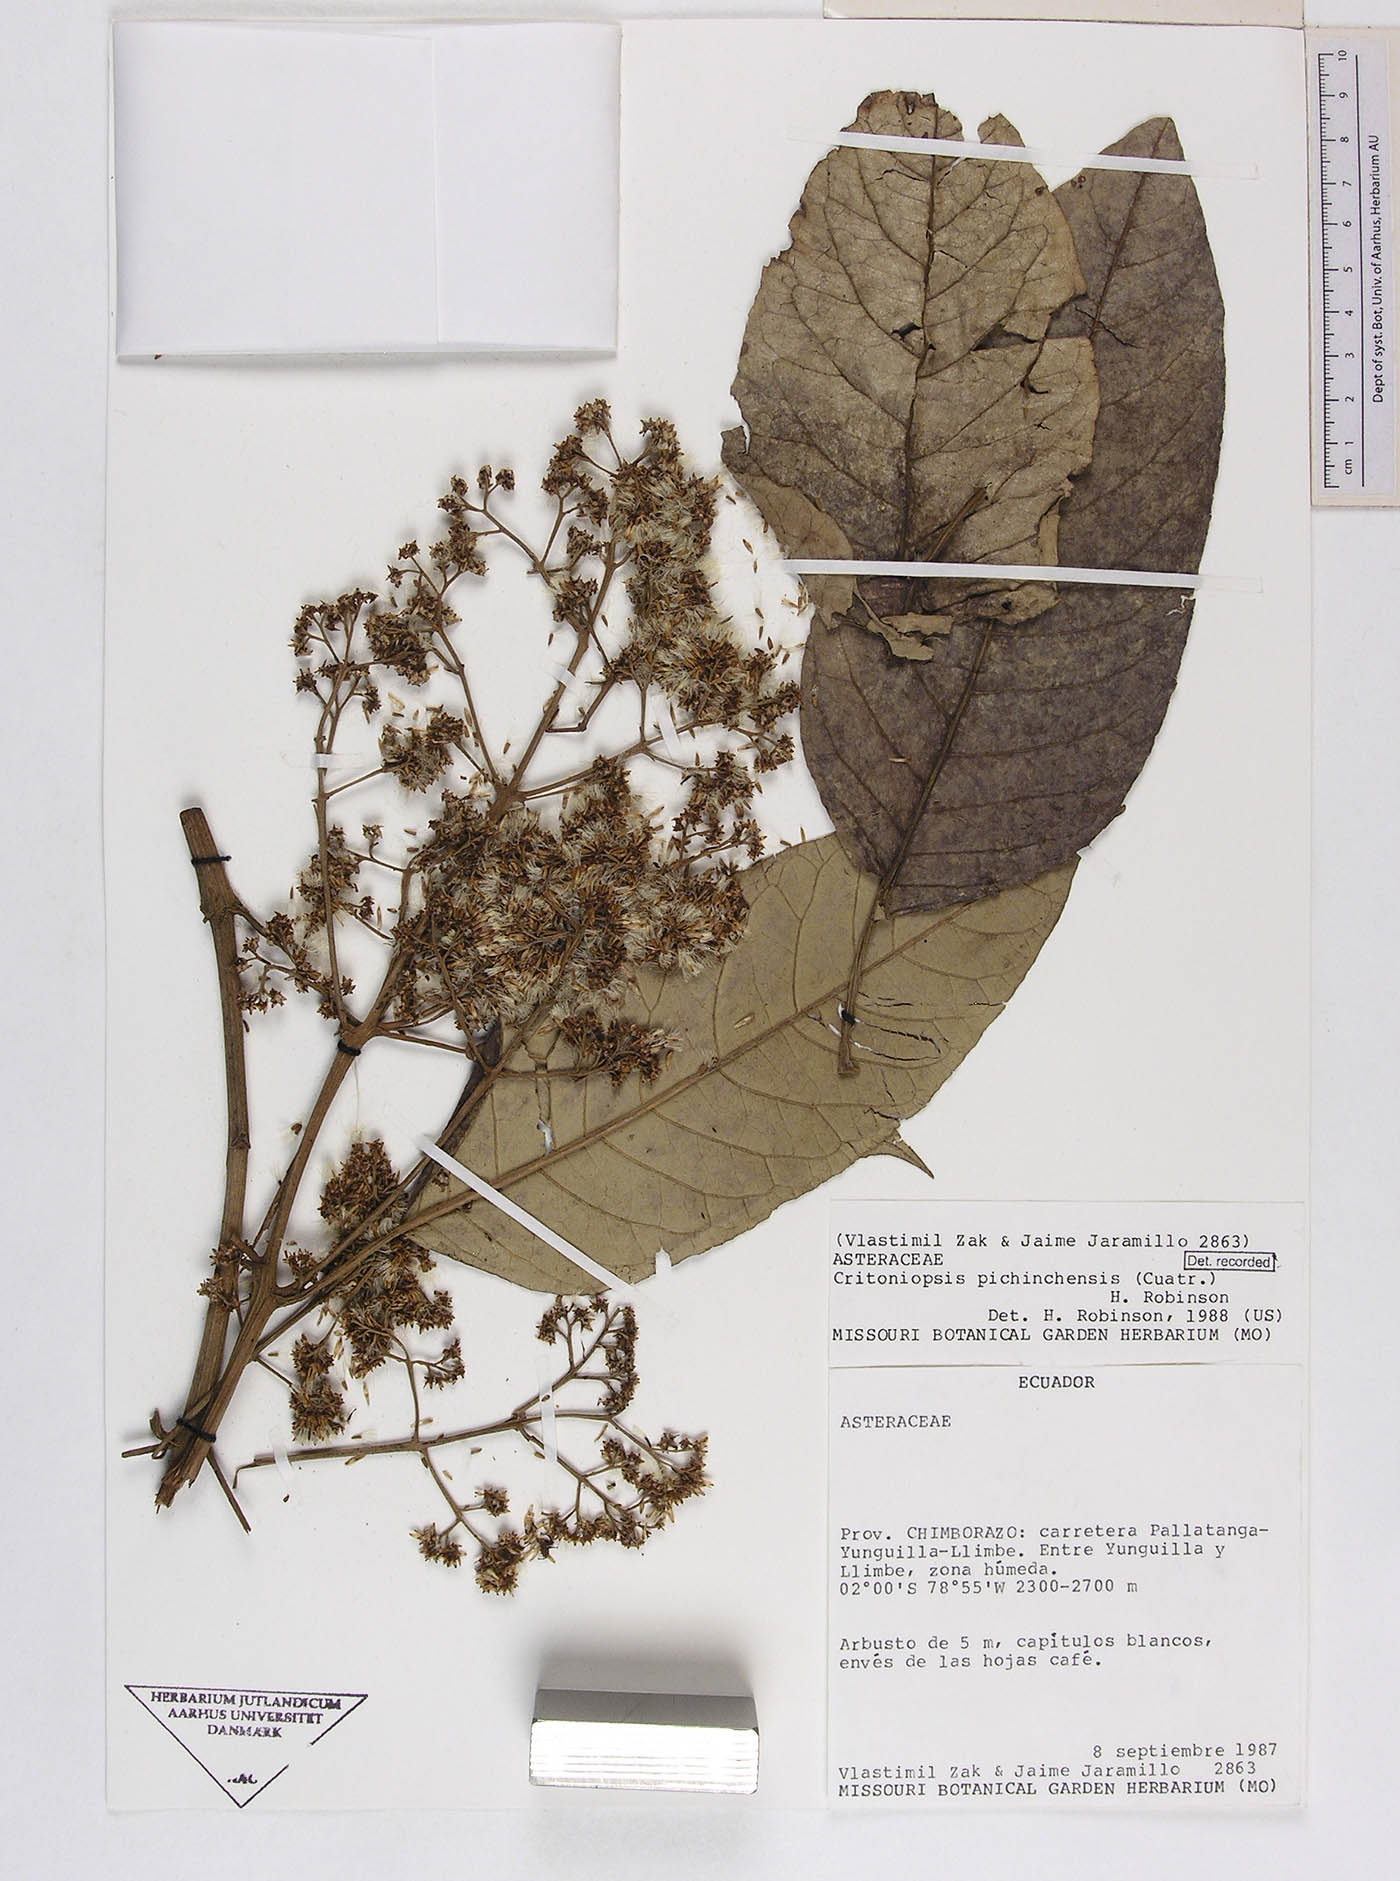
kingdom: Plantae
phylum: Tracheophyta
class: Magnoliopsida
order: Asterales
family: Asteraceae
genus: Critoniopsis
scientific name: Critoniopsis sodiroi
